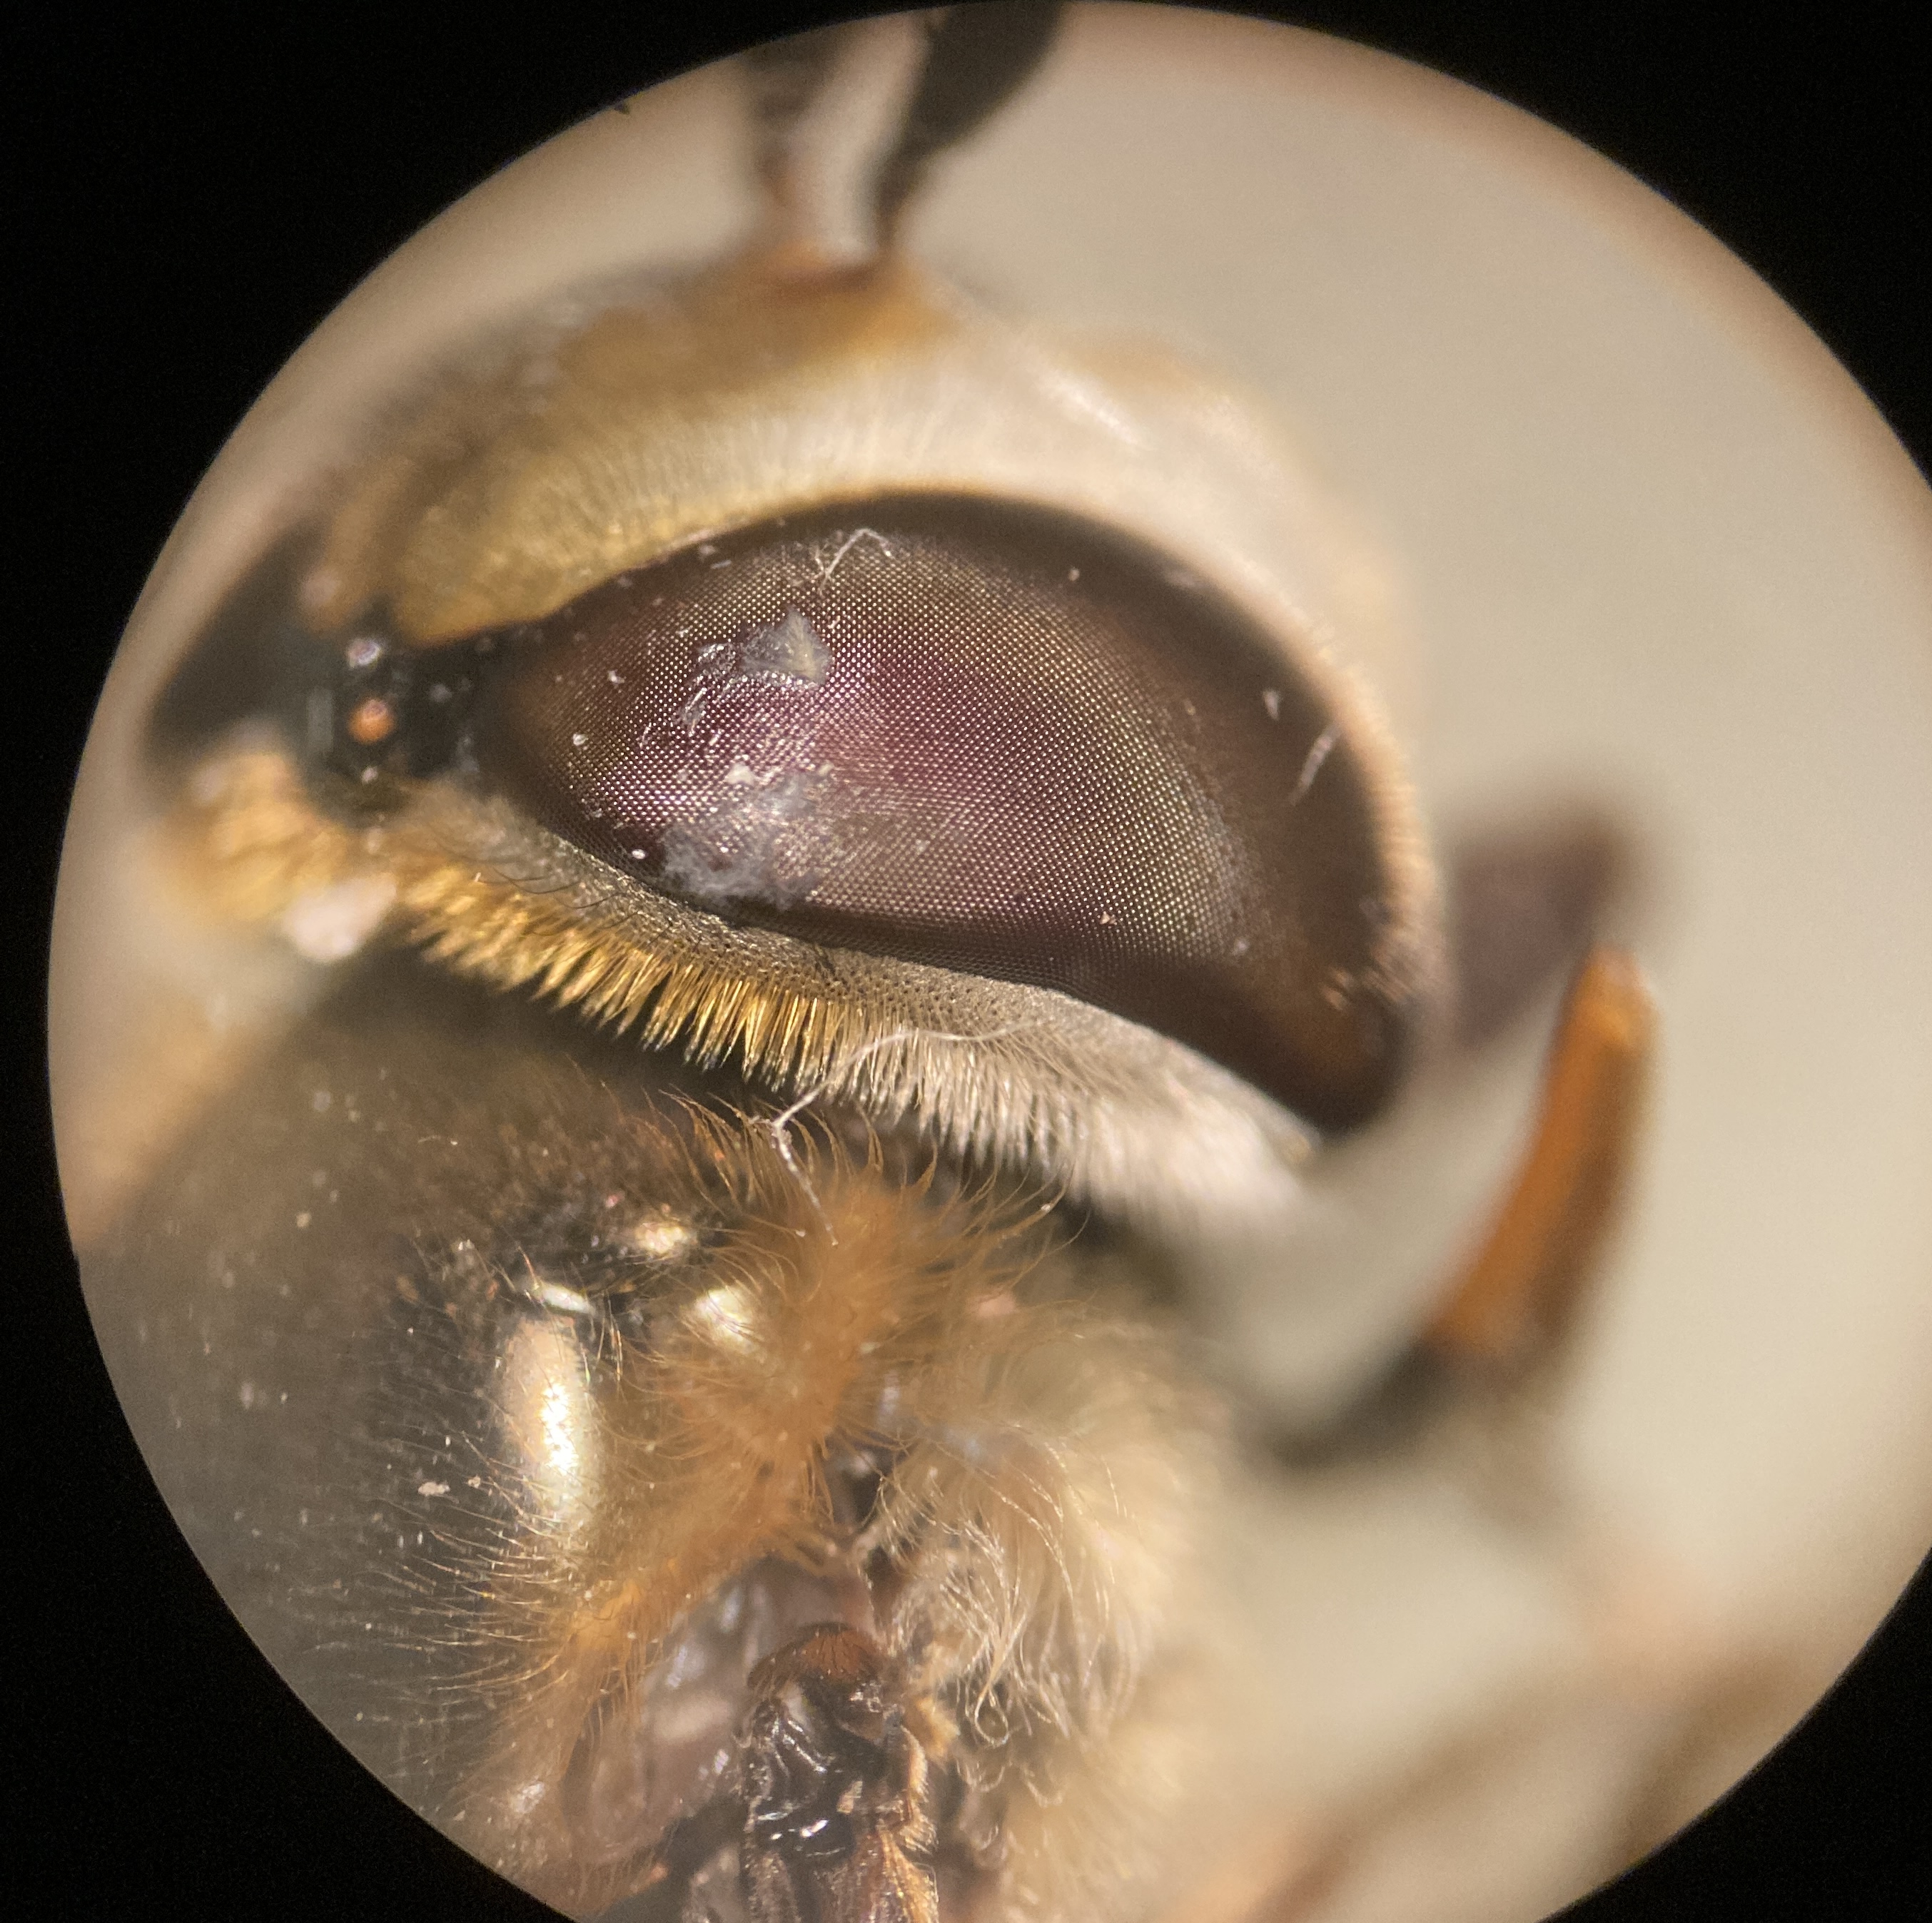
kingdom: Animalia
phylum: Arthropoda
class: Insecta
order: Diptera
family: Syrphidae
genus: Scaeva
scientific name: Scaeva pyrastri
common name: Hvidplettet agersvirreflue
